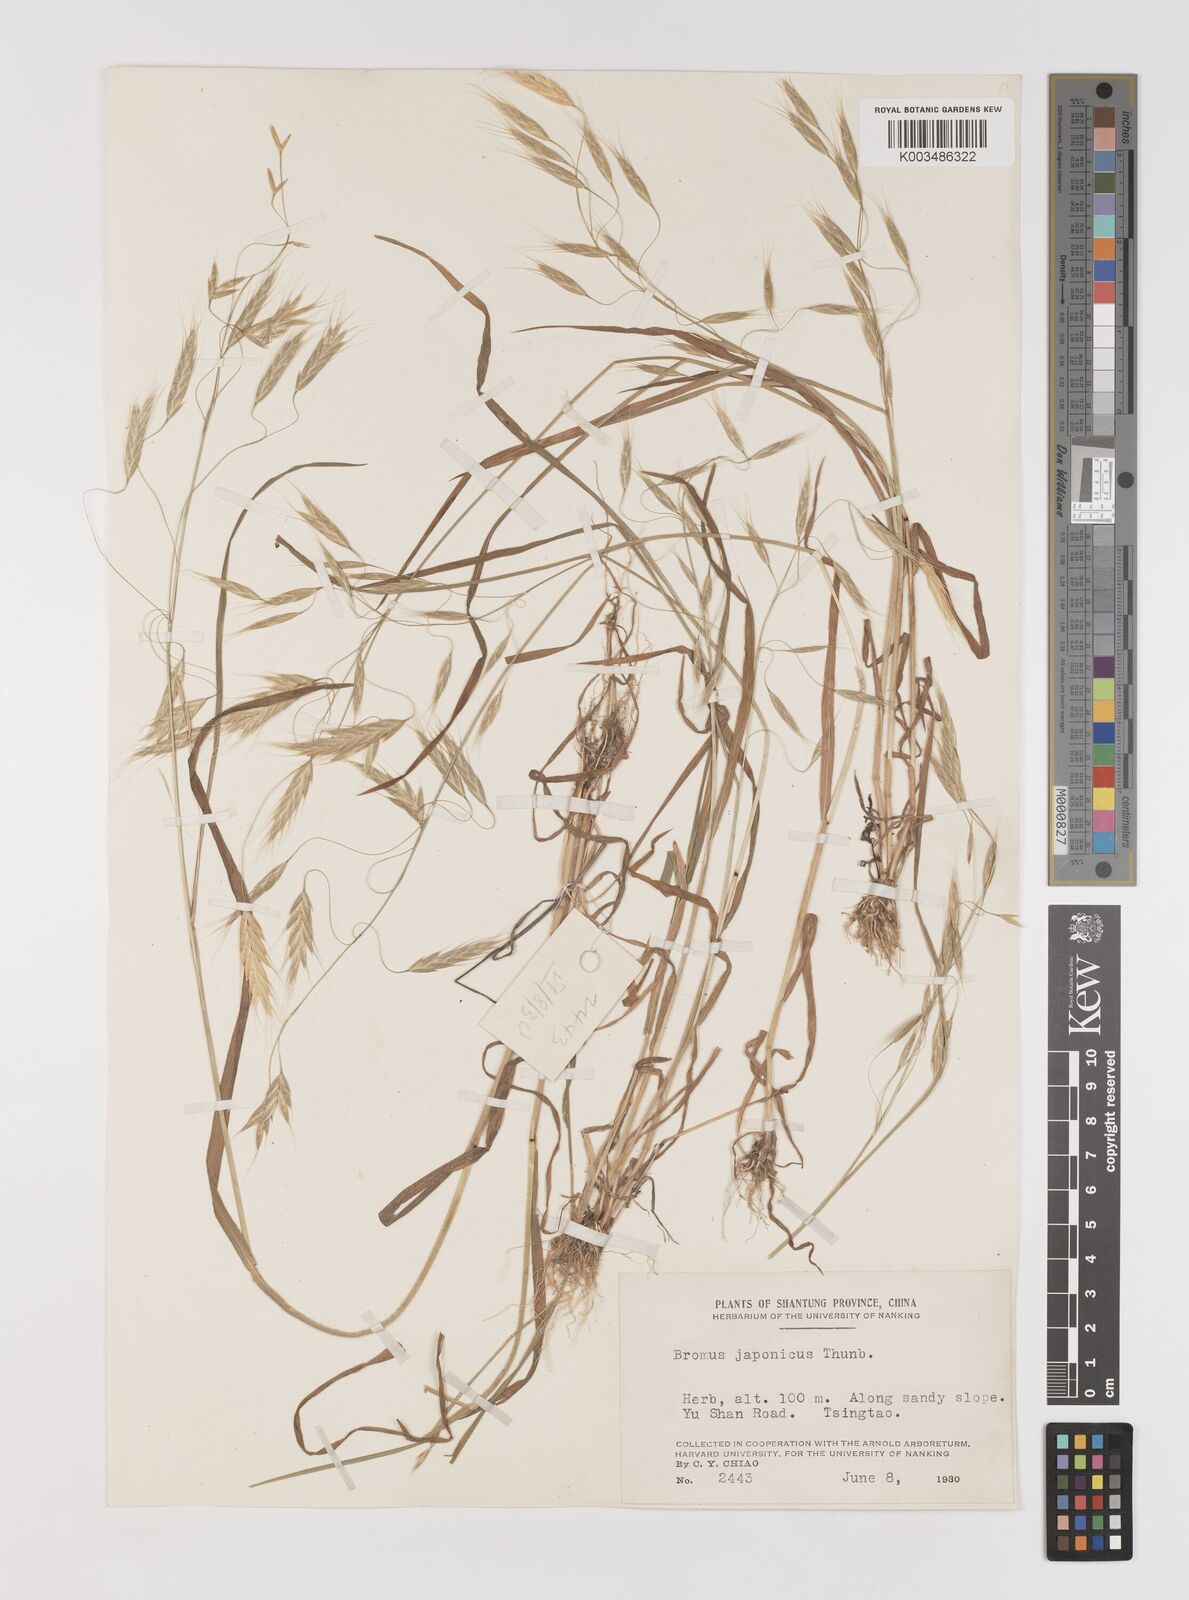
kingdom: Plantae
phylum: Tracheophyta
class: Liliopsida
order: Poales
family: Poaceae
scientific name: Poaceae
